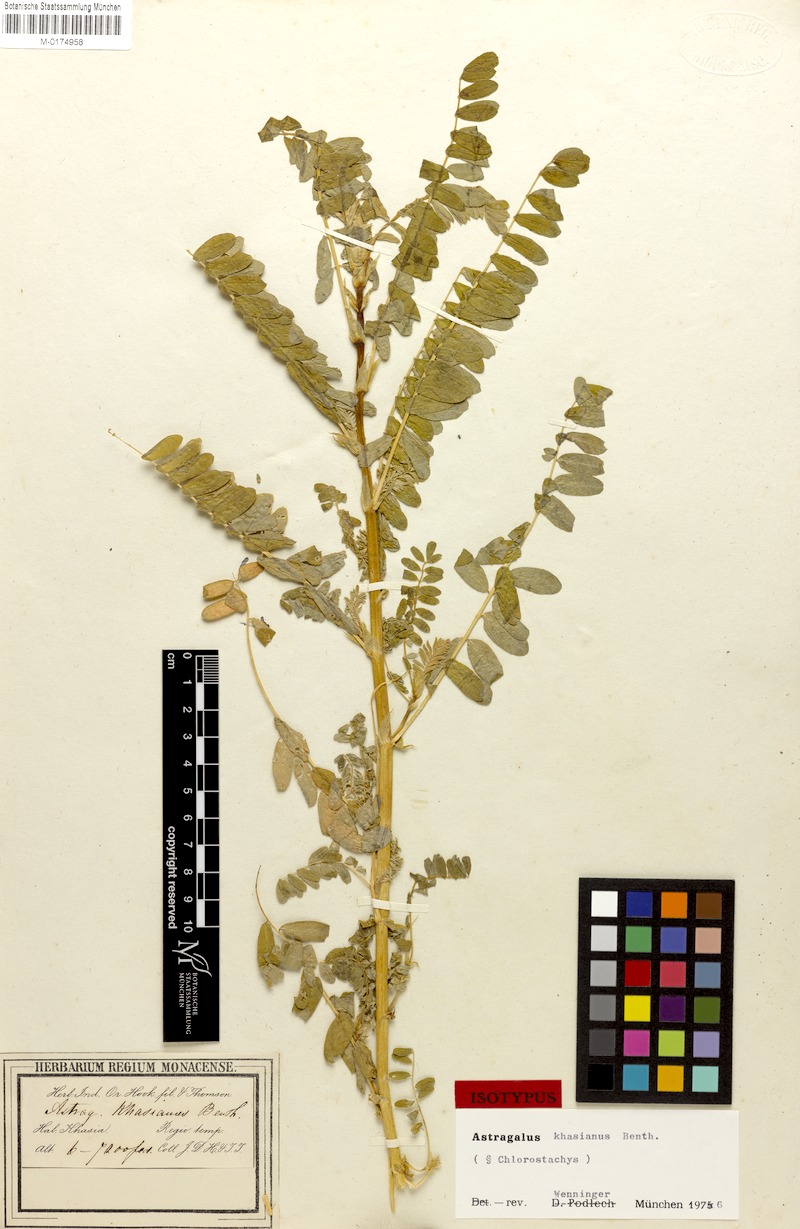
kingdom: Plantae
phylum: Tracheophyta
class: Magnoliopsida
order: Fabales
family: Fabaceae
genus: Astragalus
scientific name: Astragalus khasianus
